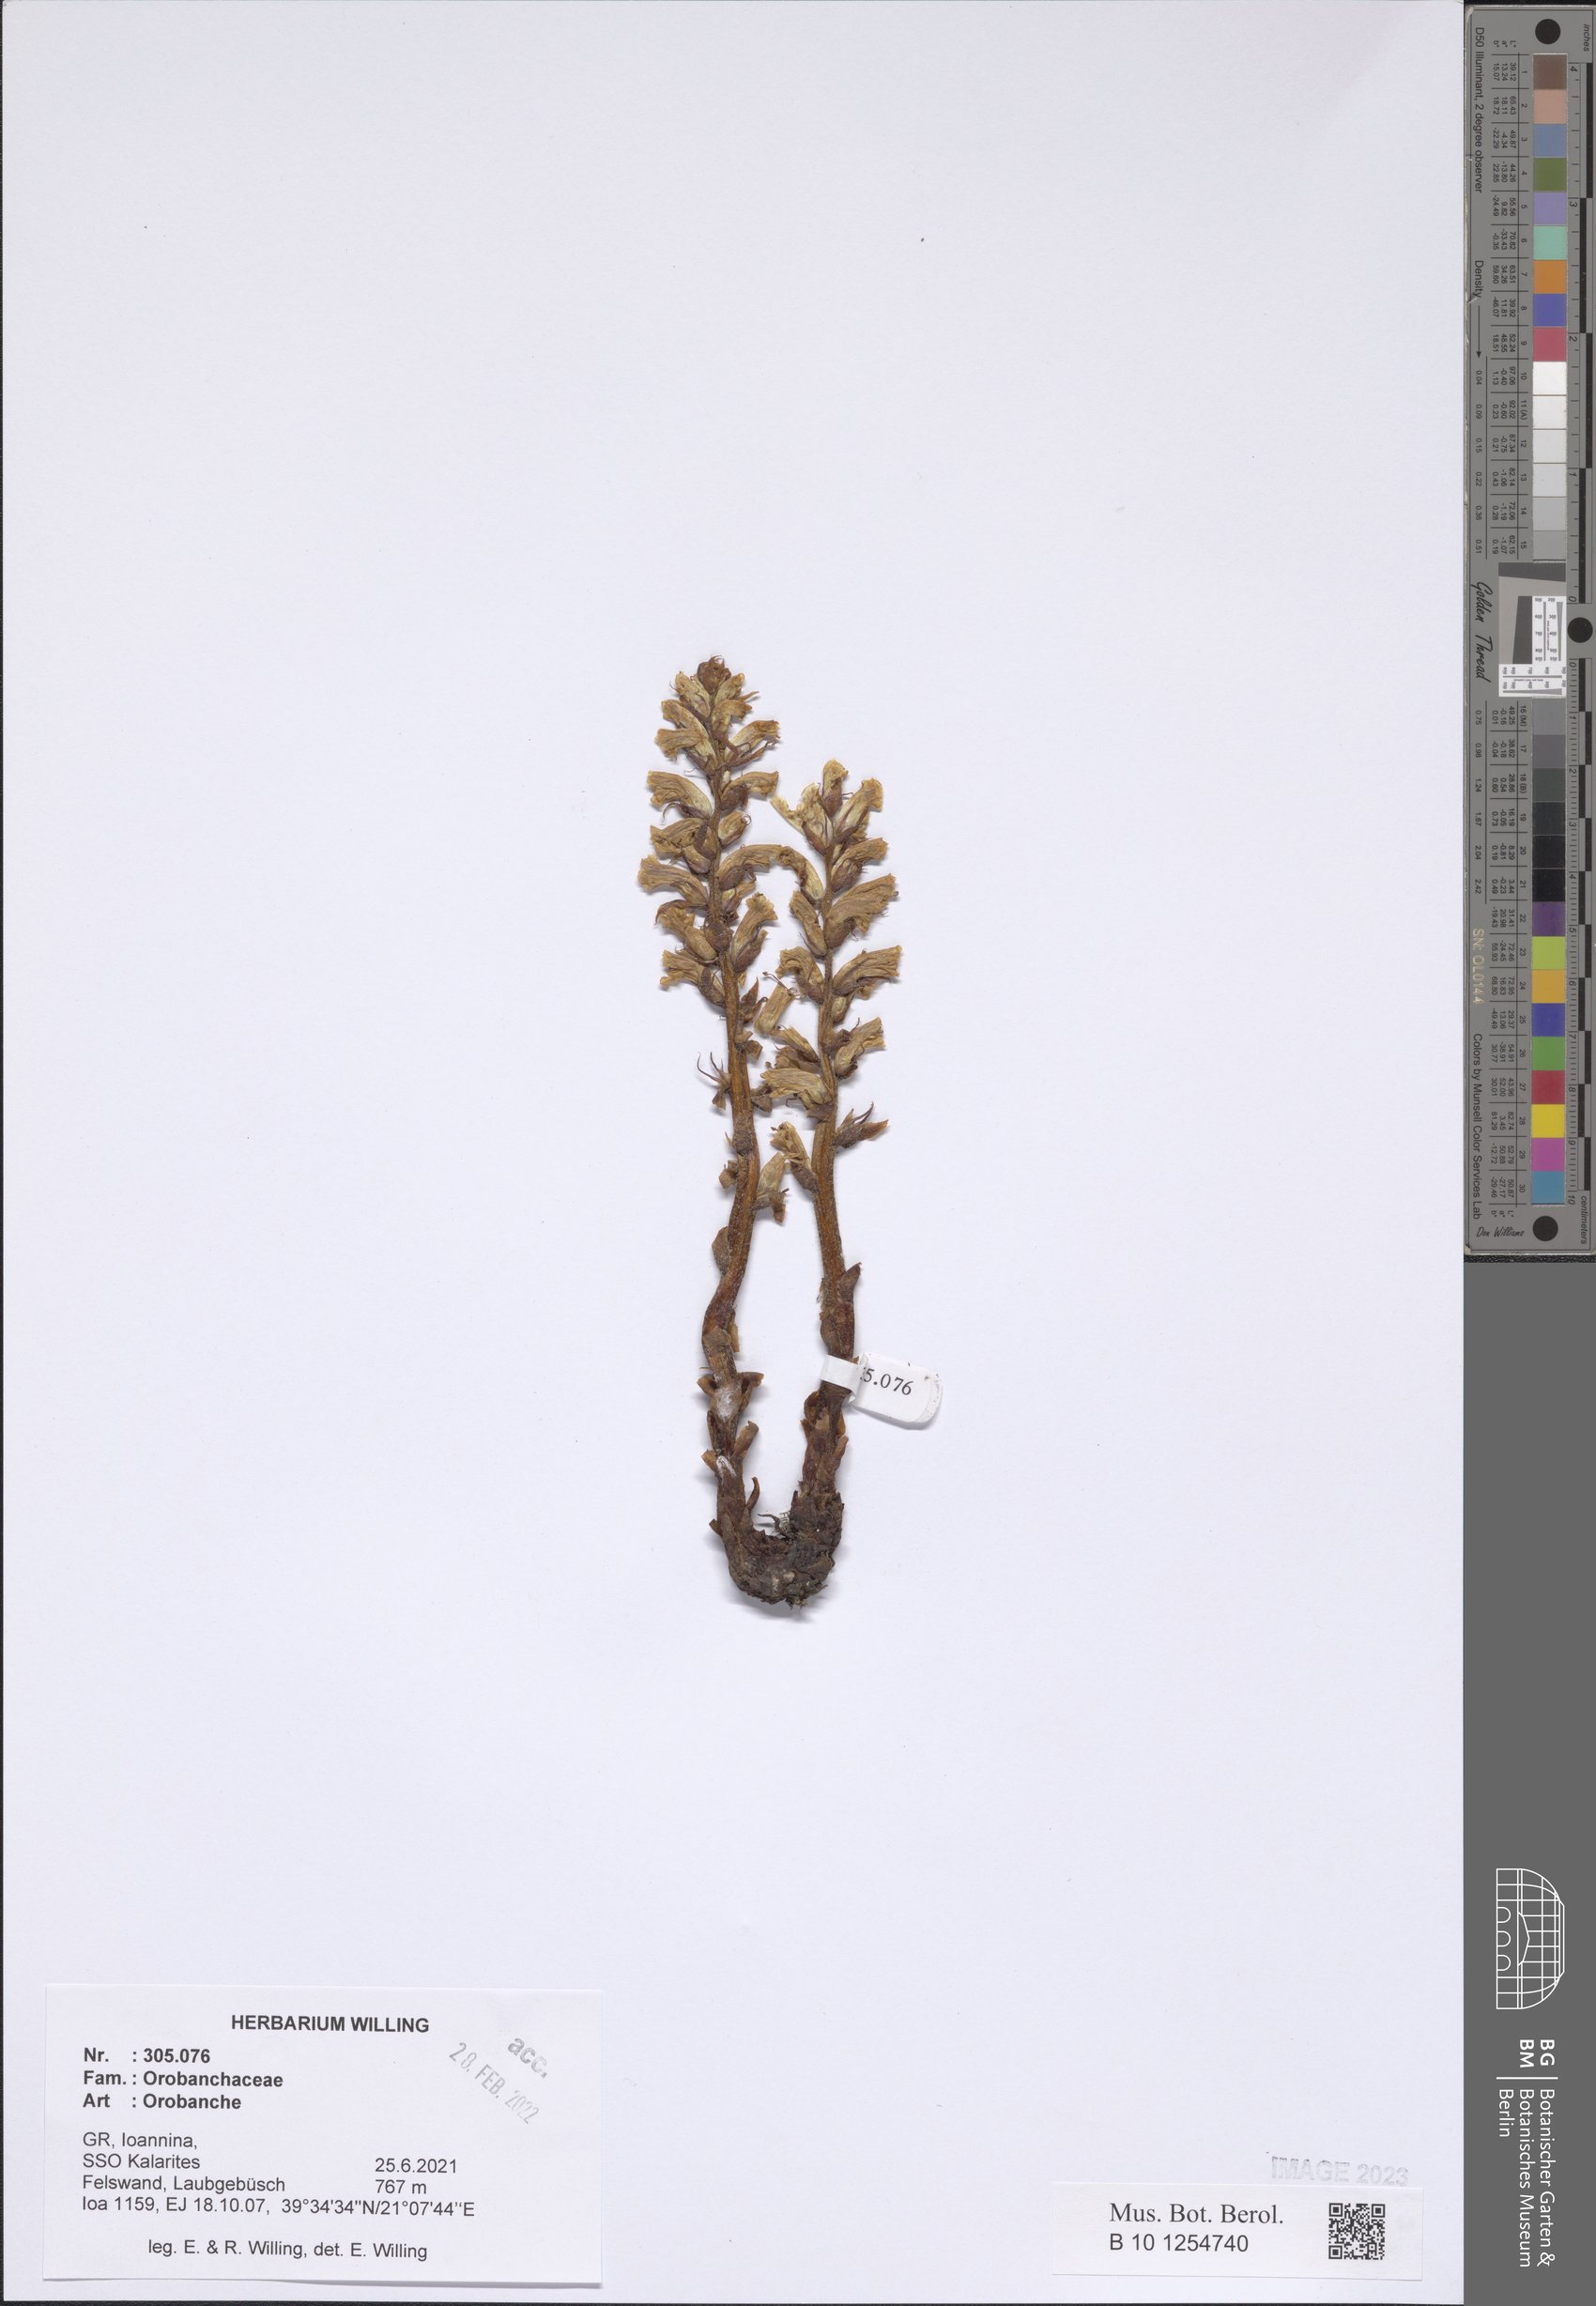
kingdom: Plantae
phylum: Tracheophyta
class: Magnoliopsida
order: Lamiales
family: Orobanchaceae
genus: Orobanche
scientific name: Orobanche
